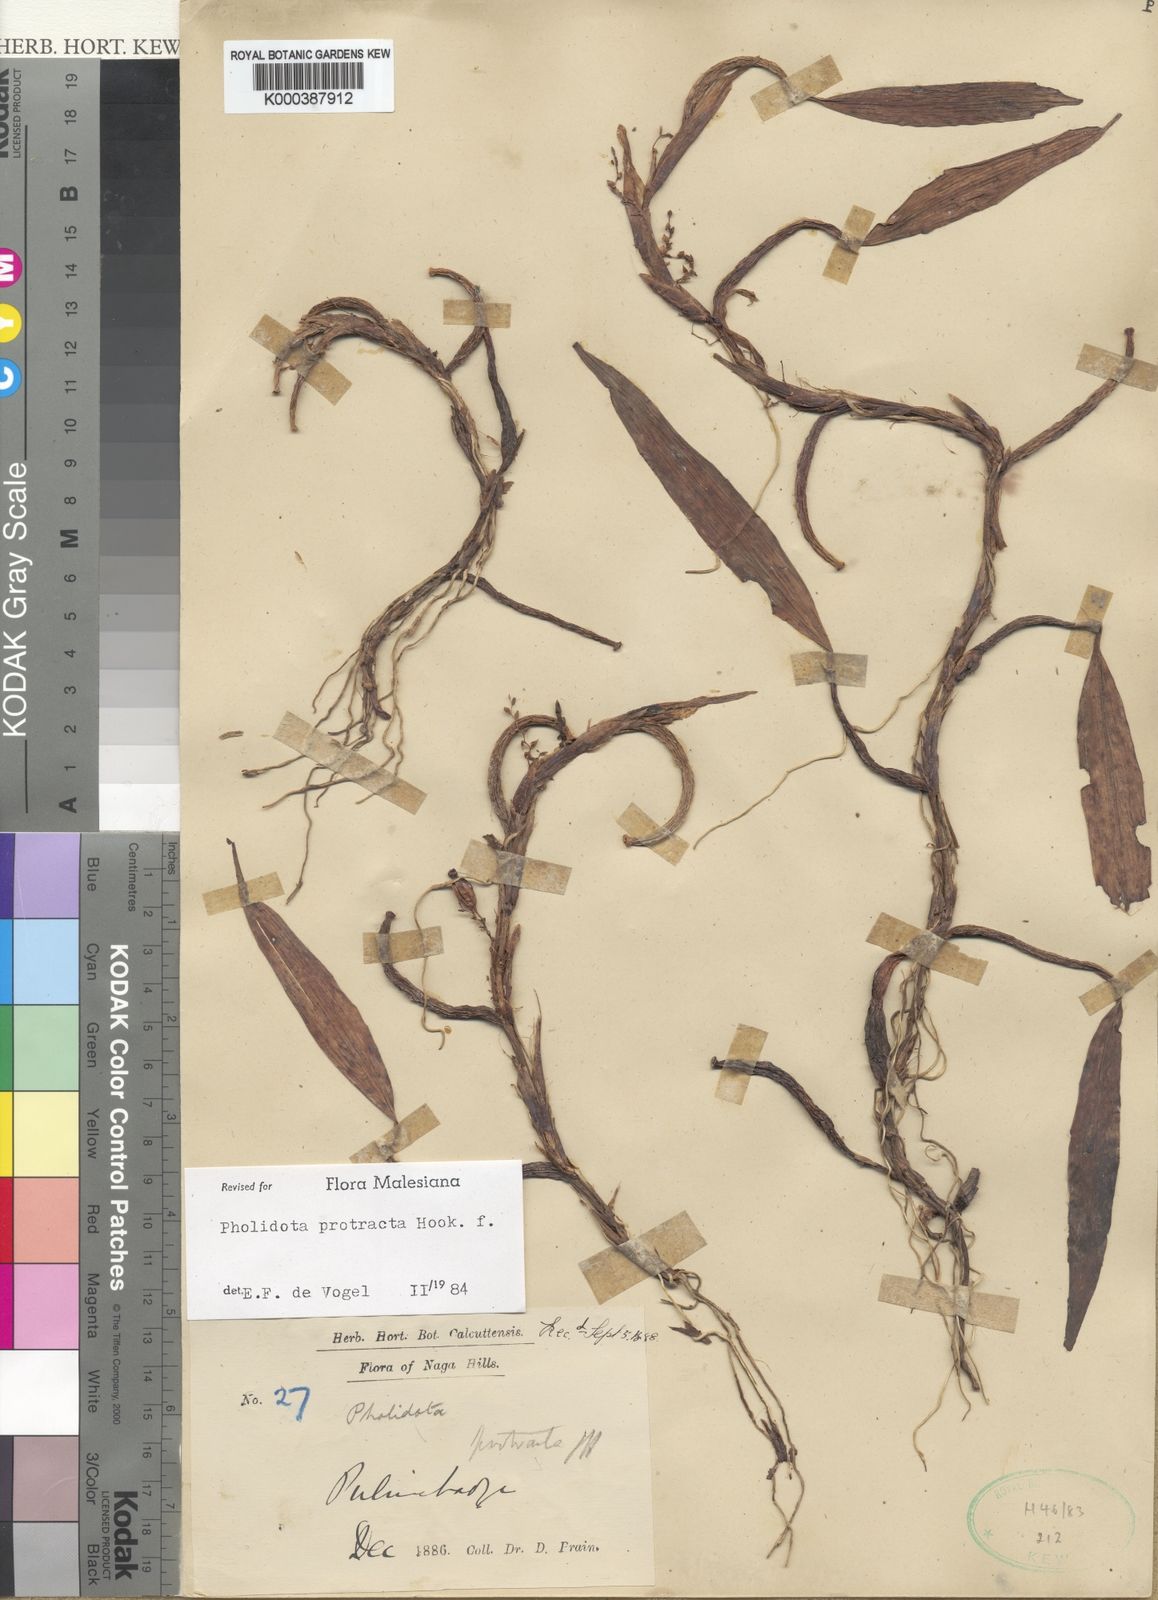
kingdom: Plantae
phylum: Tracheophyta
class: Liliopsida
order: Asparagales
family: Orchidaceae
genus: Coelogyne
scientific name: Coelogyne protracta
